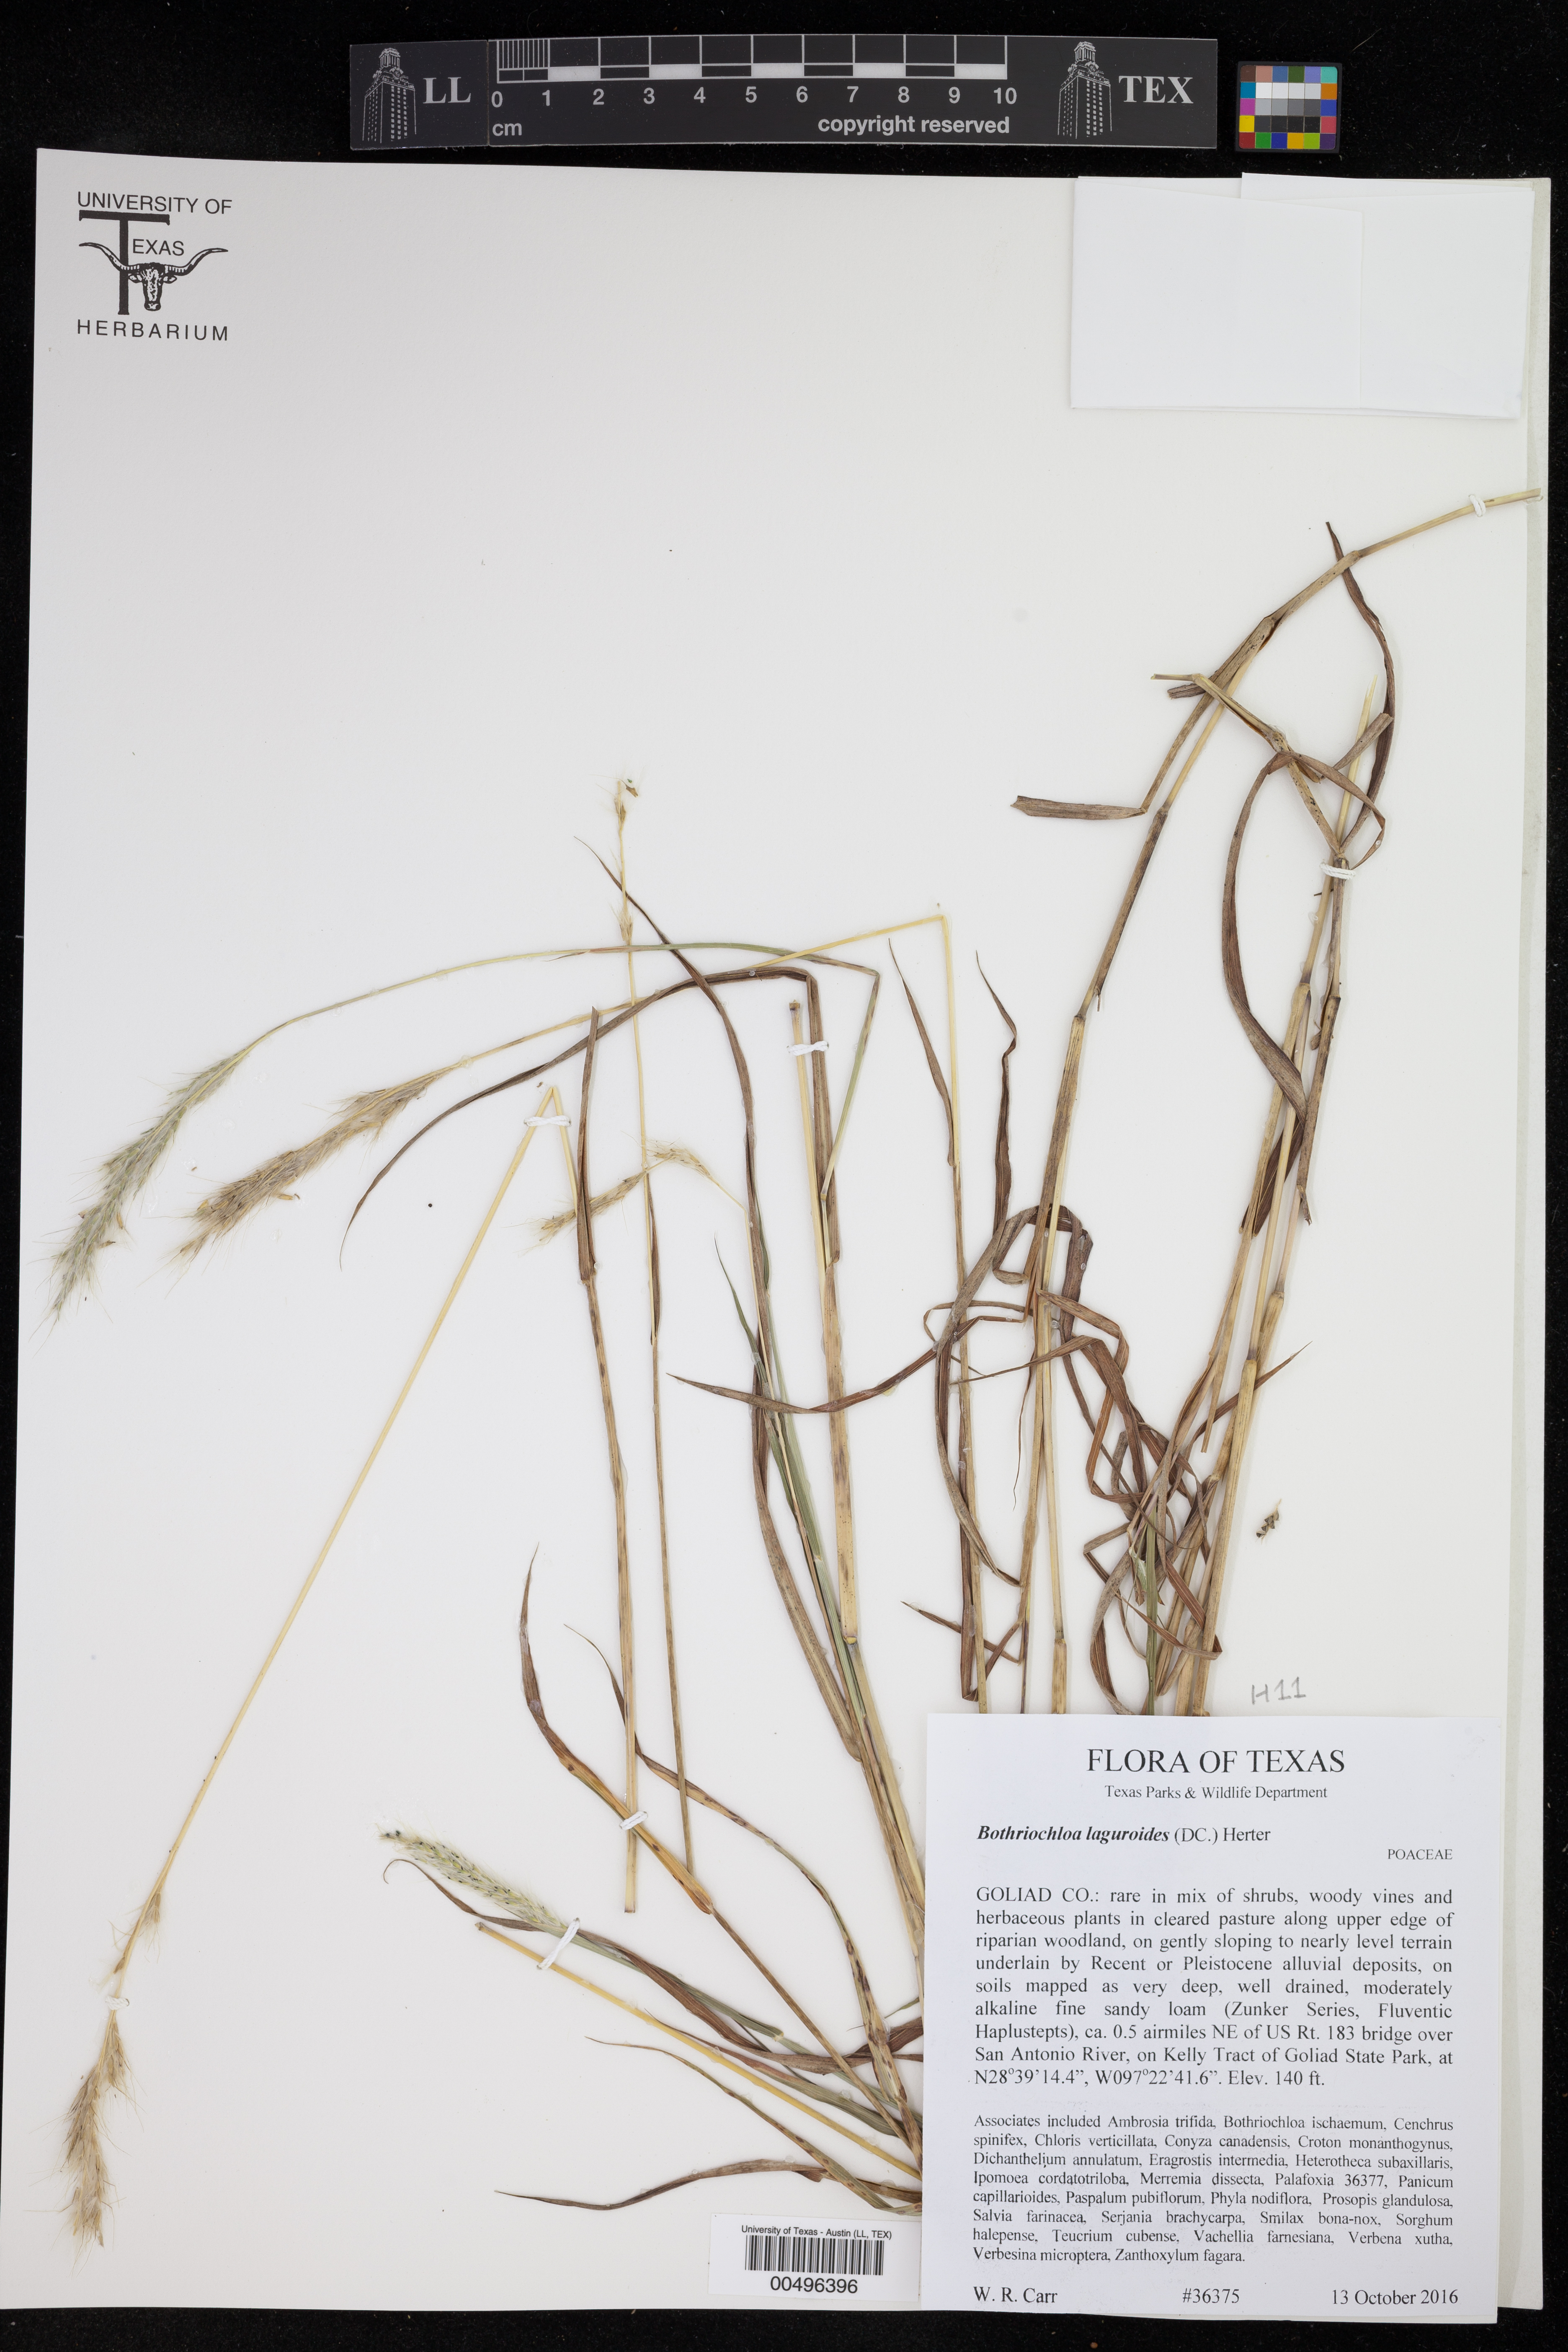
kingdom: Plantae
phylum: Tracheophyta
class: Liliopsida
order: Poales
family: Poaceae
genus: Bothriochloa
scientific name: Bothriochloa laguroides
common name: Silver bluestem
